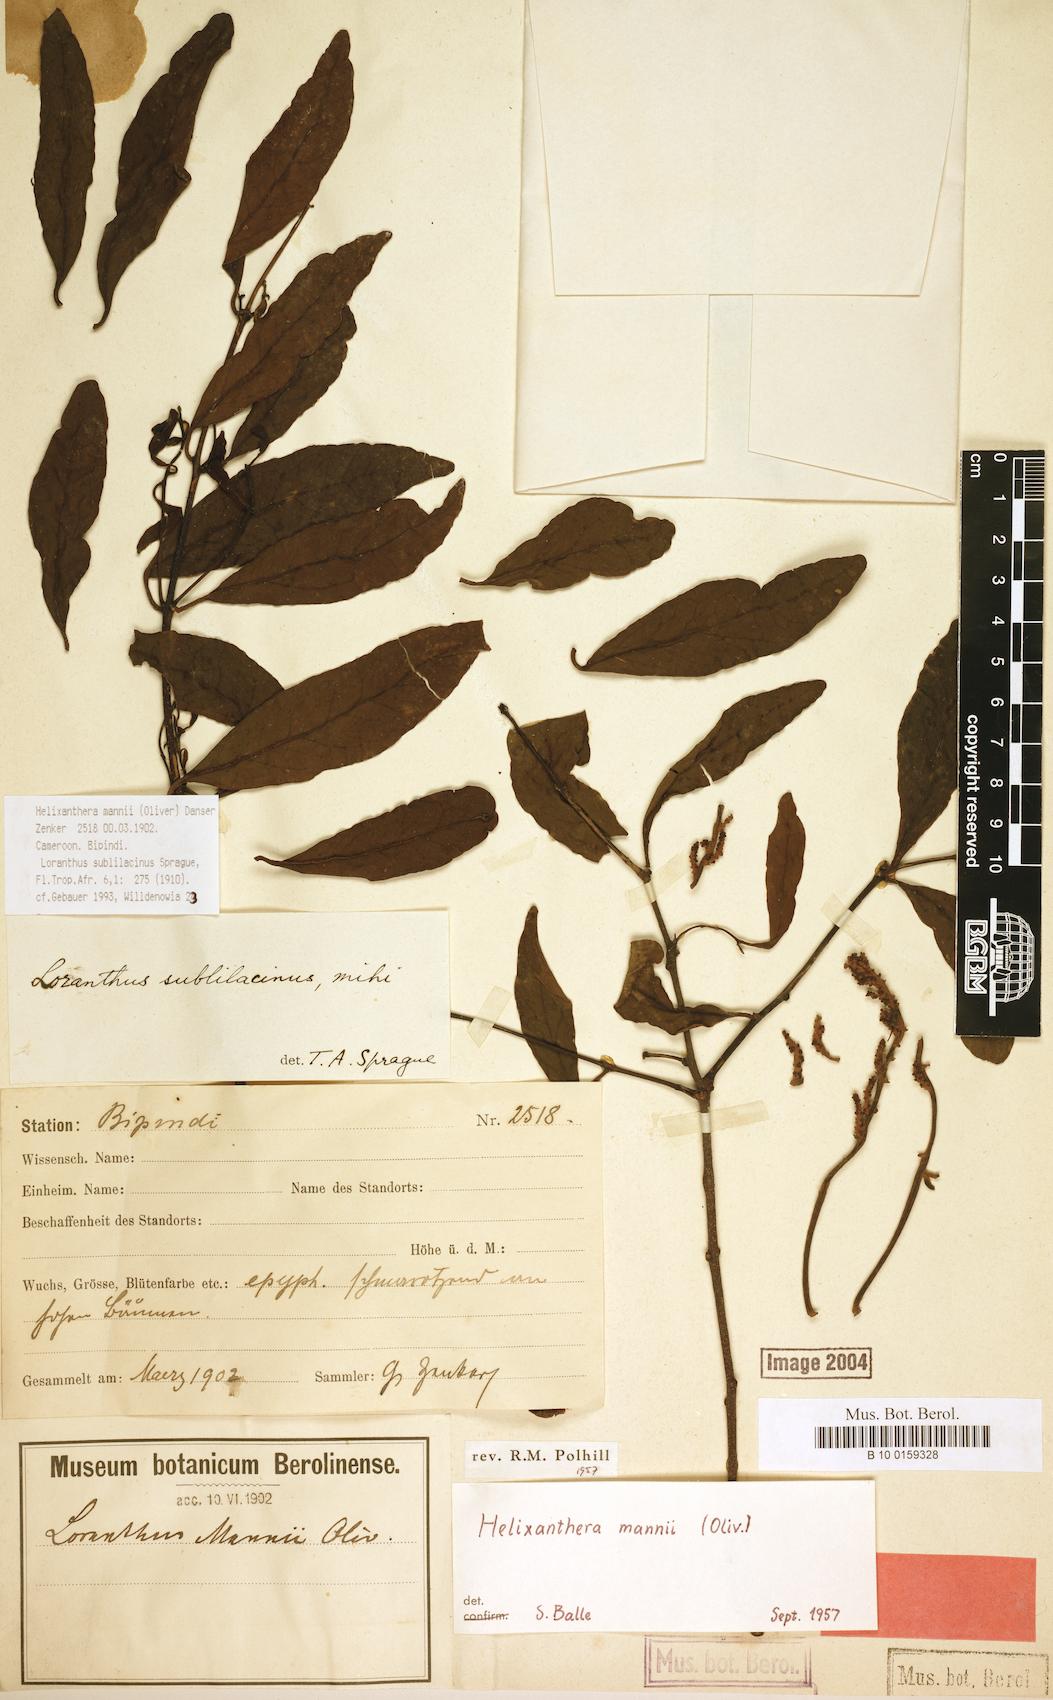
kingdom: Plantae
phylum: Tracheophyta
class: Magnoliopsida
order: Santalales
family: Loranthaceae
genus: Helixanthera
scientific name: Helixanthera mannii
